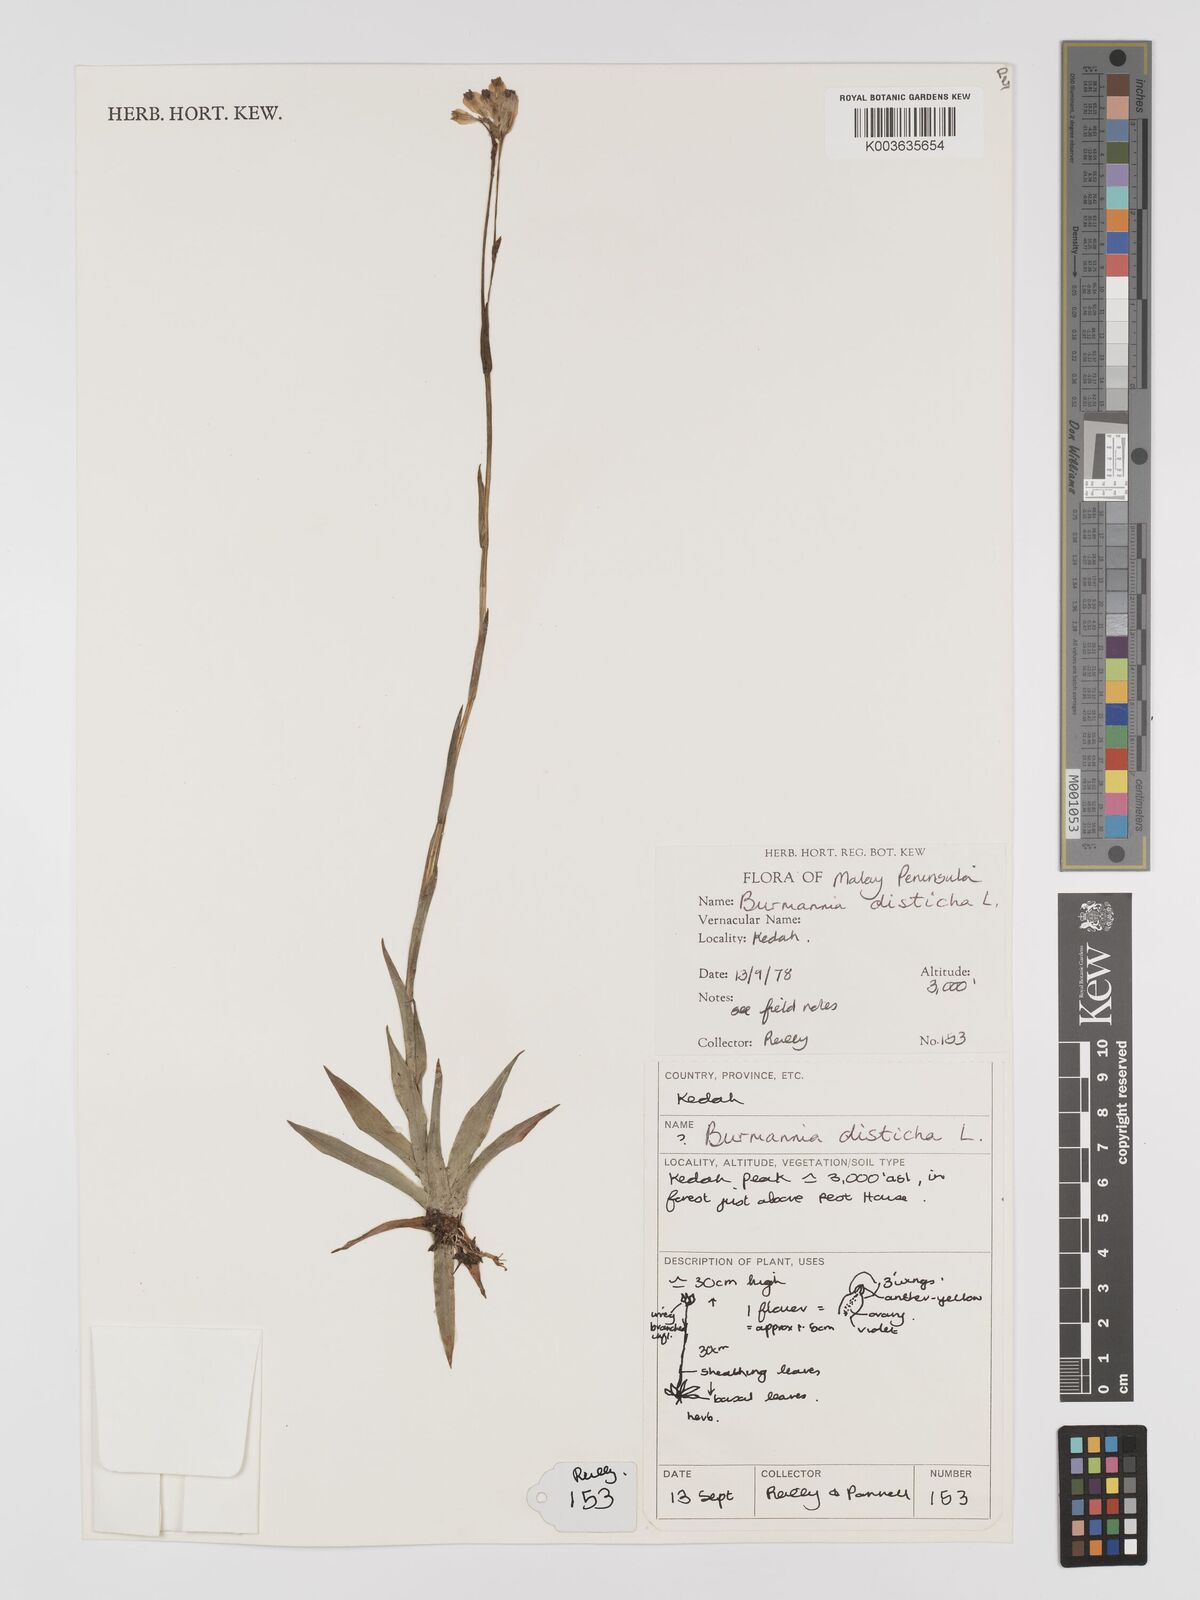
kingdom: Plantae
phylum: Tracheophyta
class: Liliopsida
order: Dioscoreales
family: Burmanniaceae
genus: Burmannia
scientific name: Burmannia disticha
